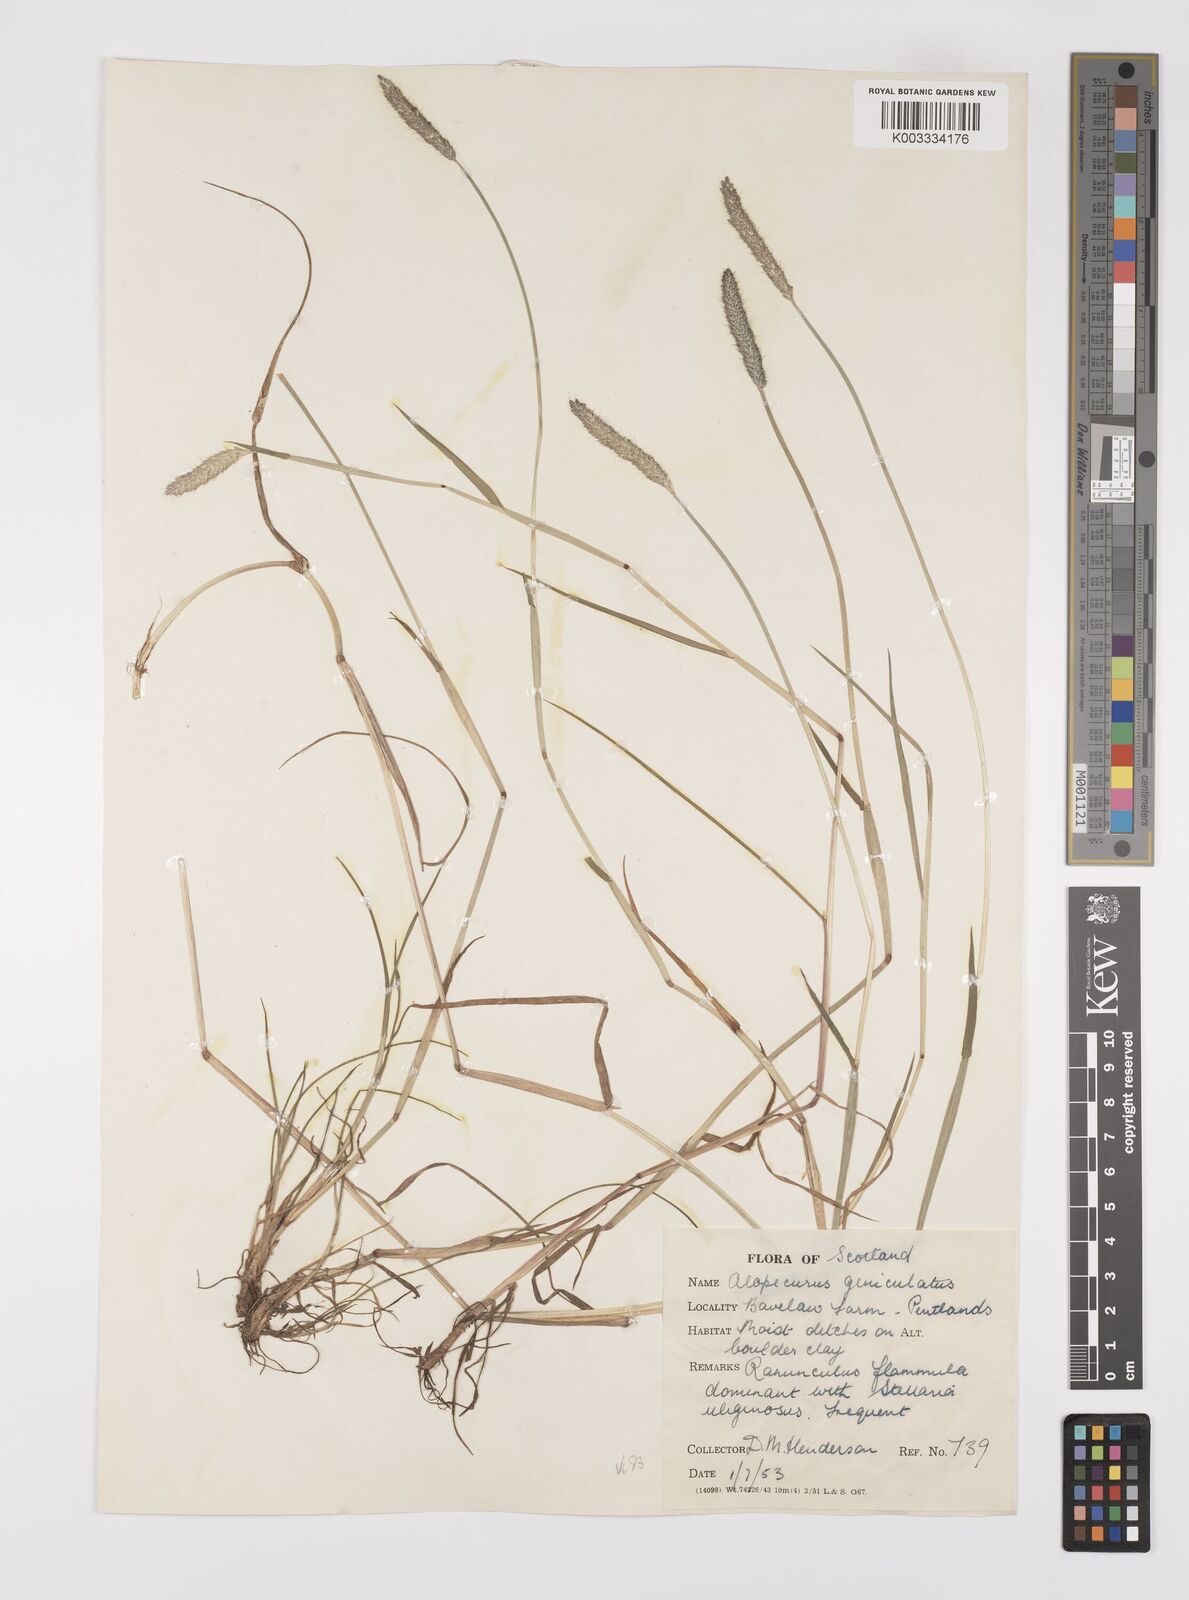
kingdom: Plantae
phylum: Tracheophyta
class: Liliopsida
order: Poales
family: Poaceae
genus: Alopecurus
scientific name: Alopecurus geniculatus
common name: Water foxtail
